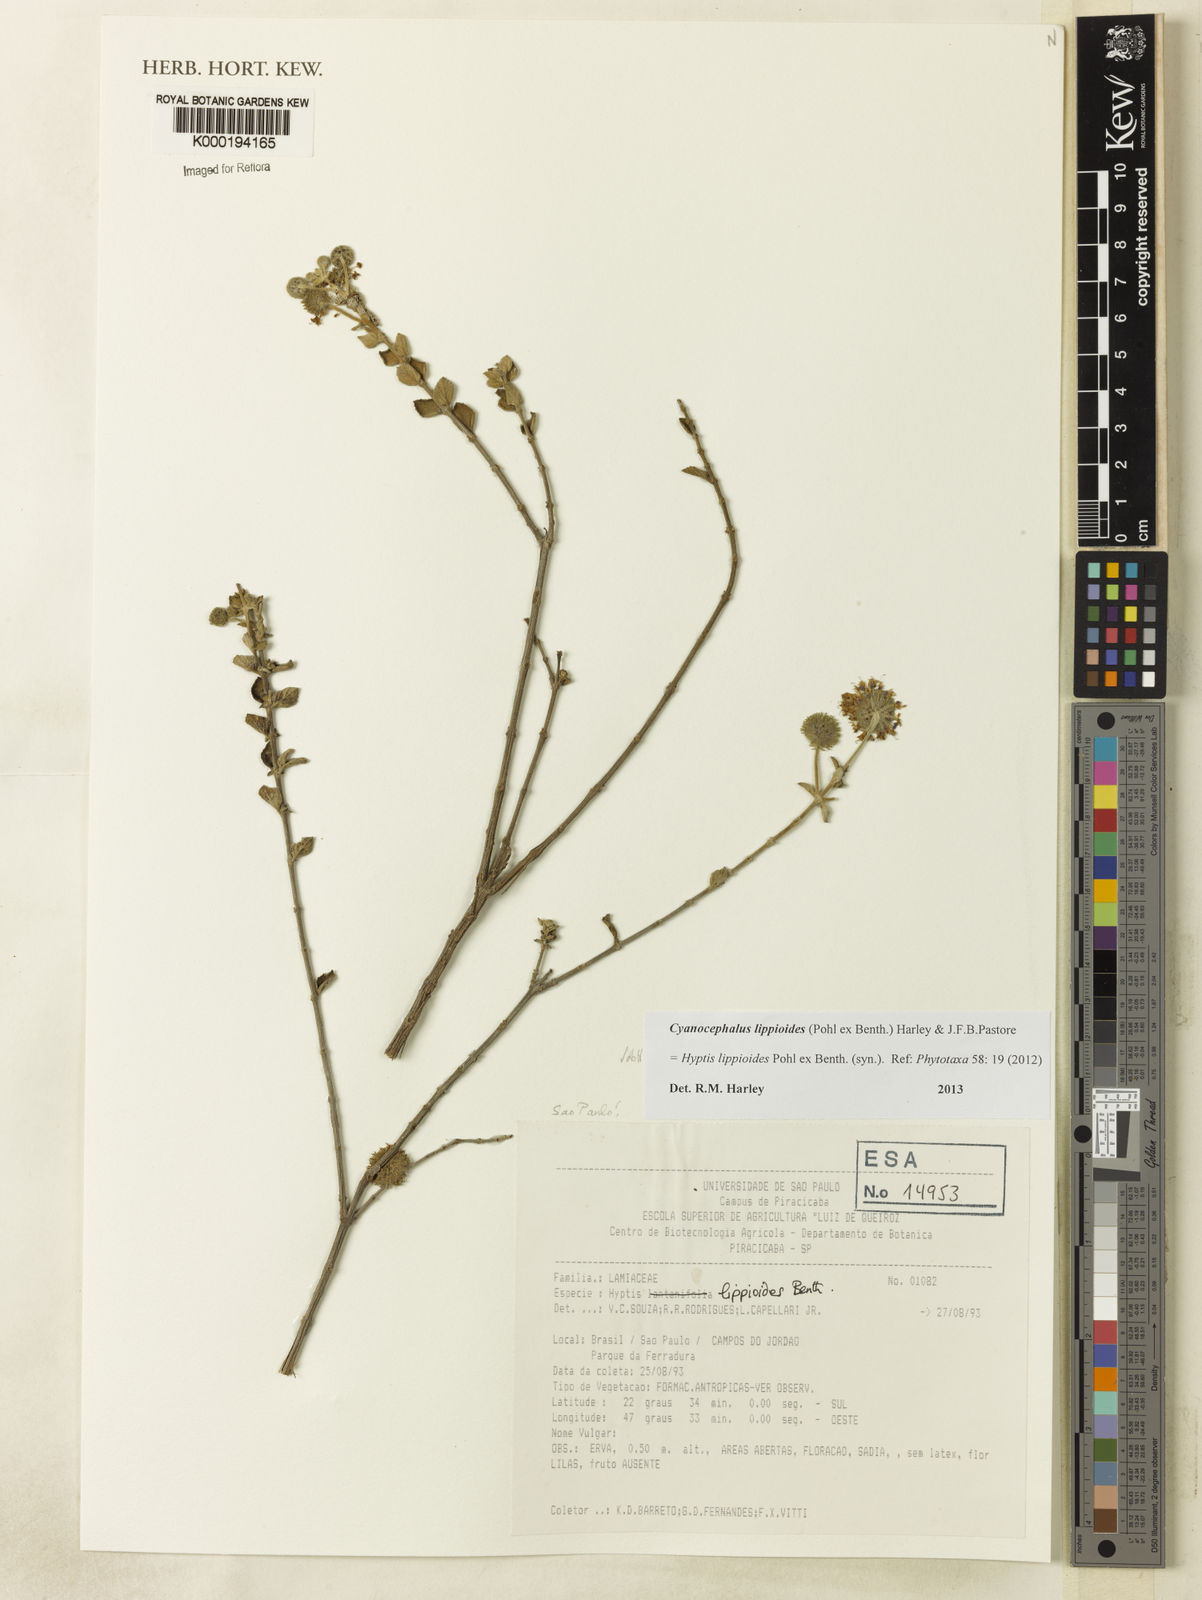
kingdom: Plantae
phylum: Tracheophyta
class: Magnoliopsida
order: Lamiales
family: Lamiaceae
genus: Cyanocephalus
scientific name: Cyanocephalus lippioides
